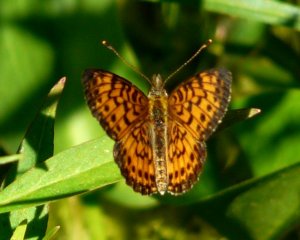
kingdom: Animalia
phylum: Arthropoda
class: Insecta
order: Lepidoptera
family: Nymphalidae
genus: Boloria
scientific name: Boloria selene
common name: Silver-bordered Fritillary
